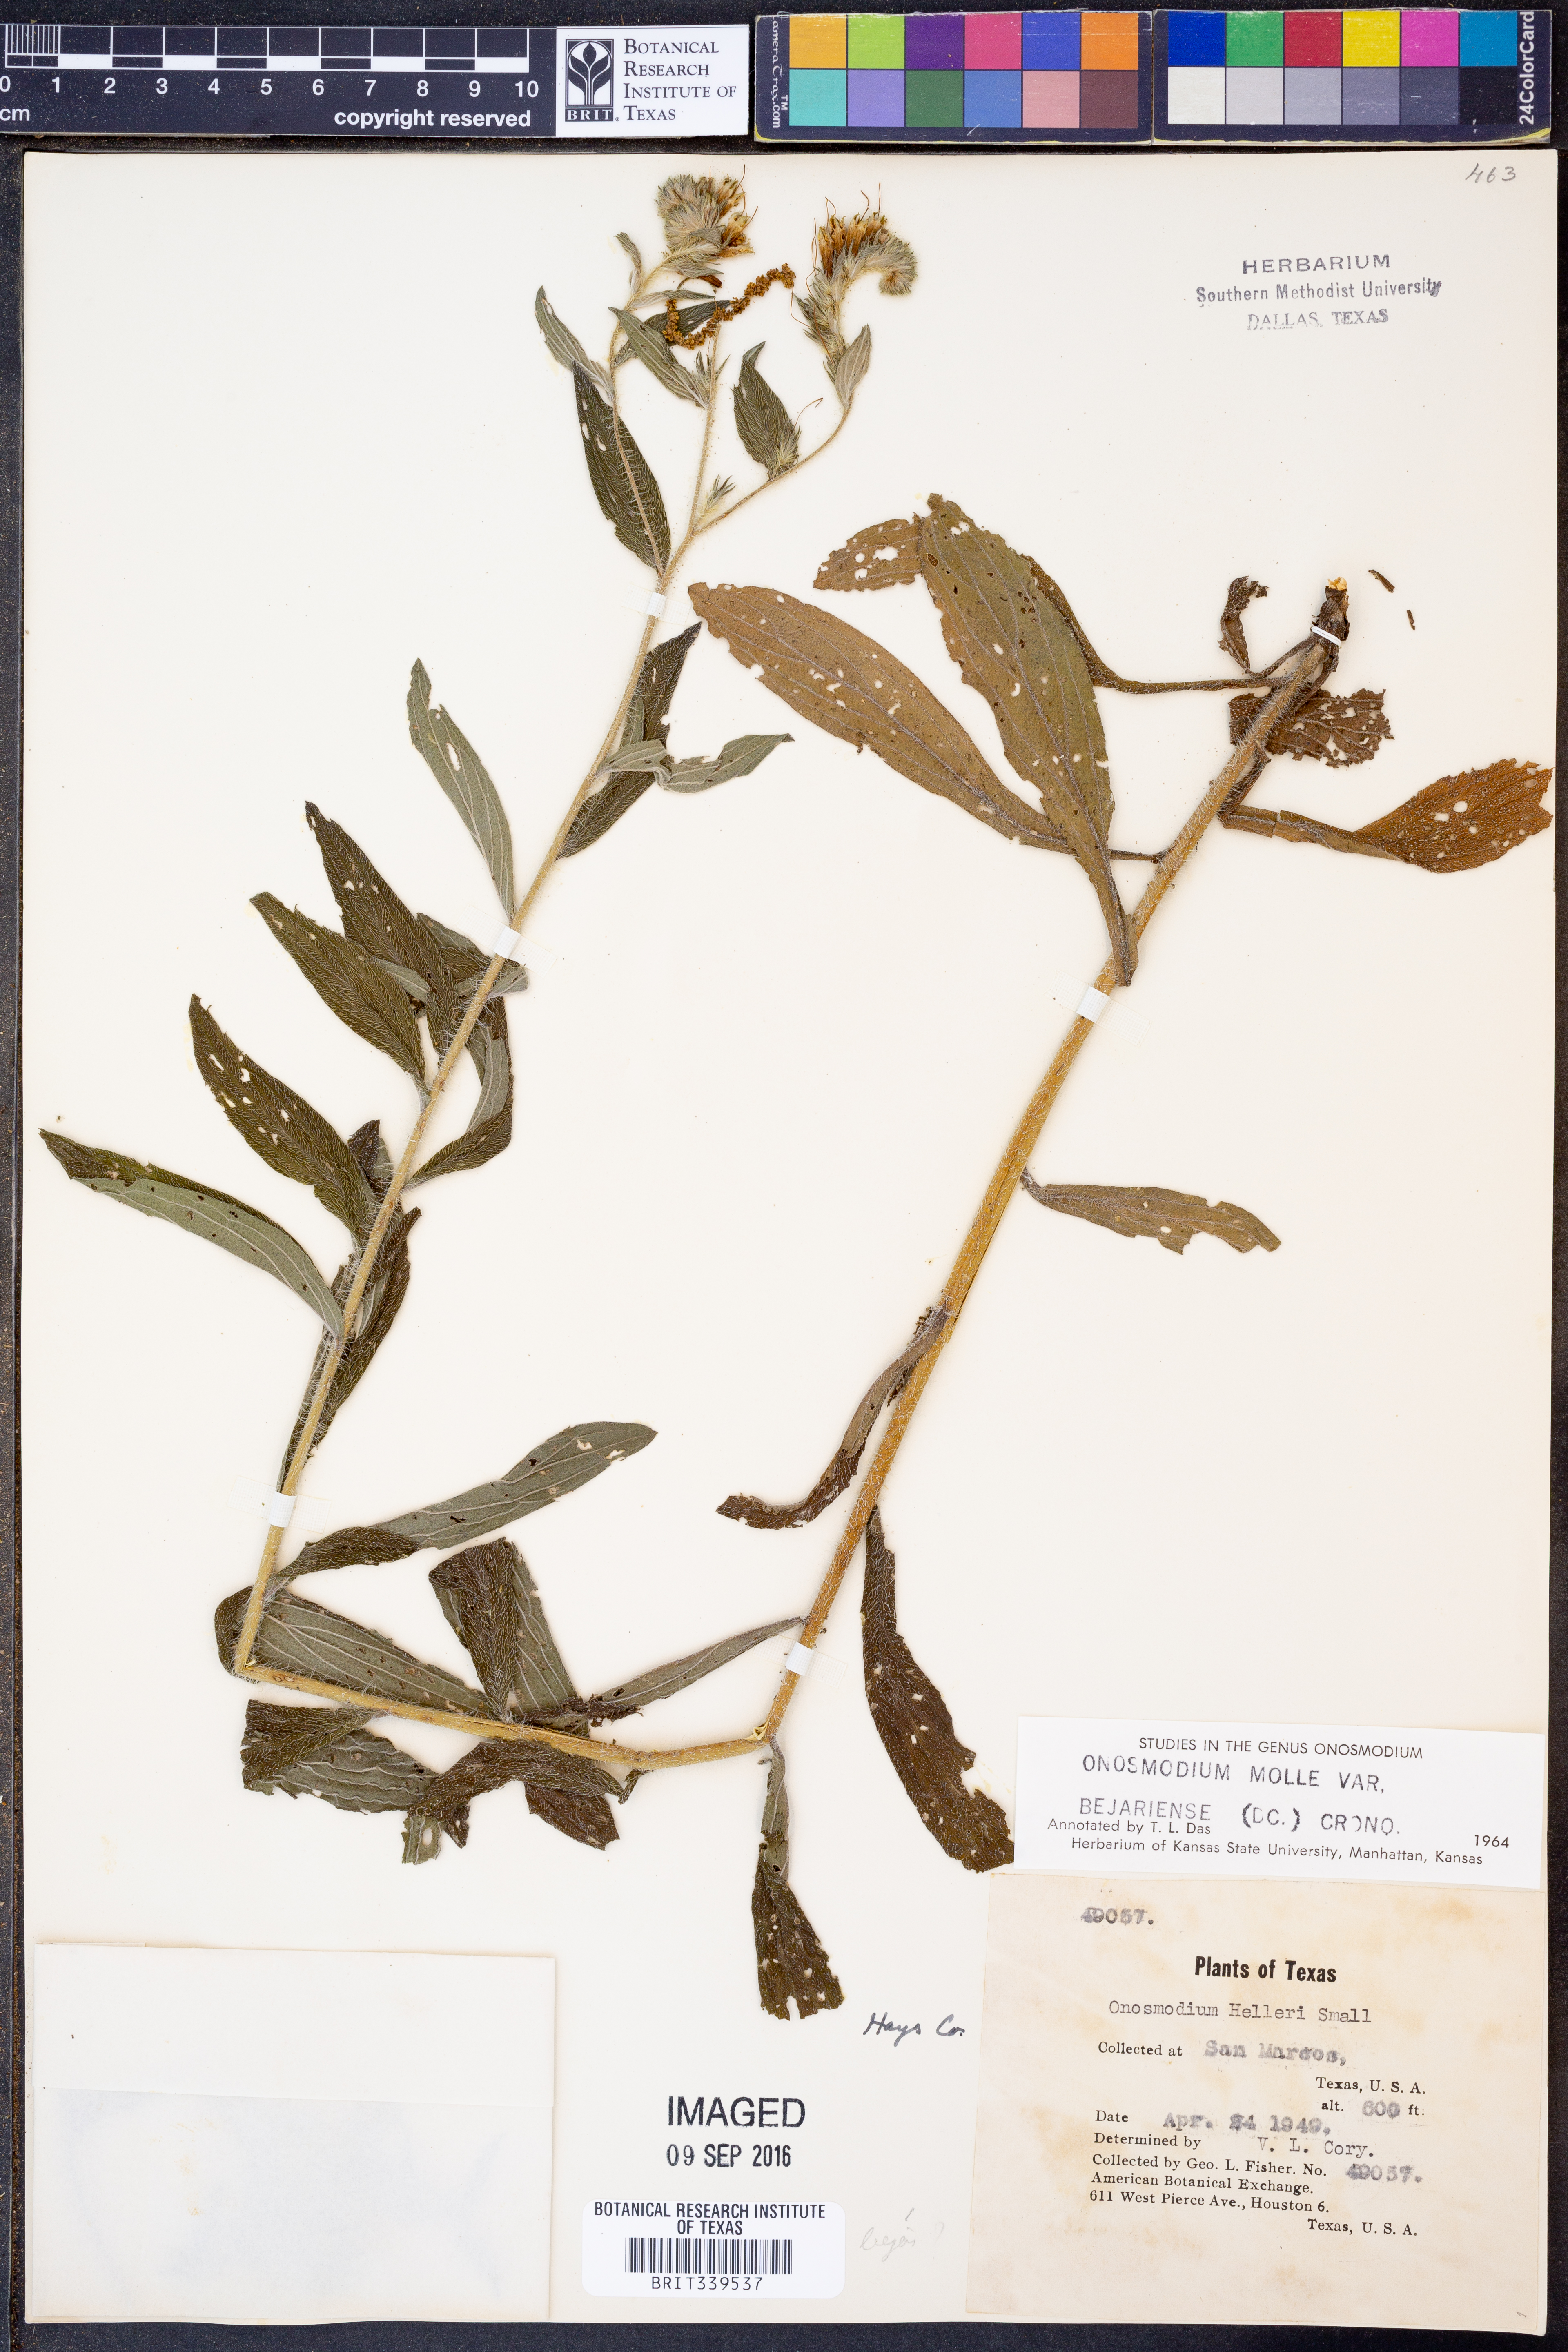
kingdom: Plantae
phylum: Tracheophyta
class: Magnoliopsida
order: Boraginales
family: Boraginaceae
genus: Lithospermum
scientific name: Lithospermum molle
